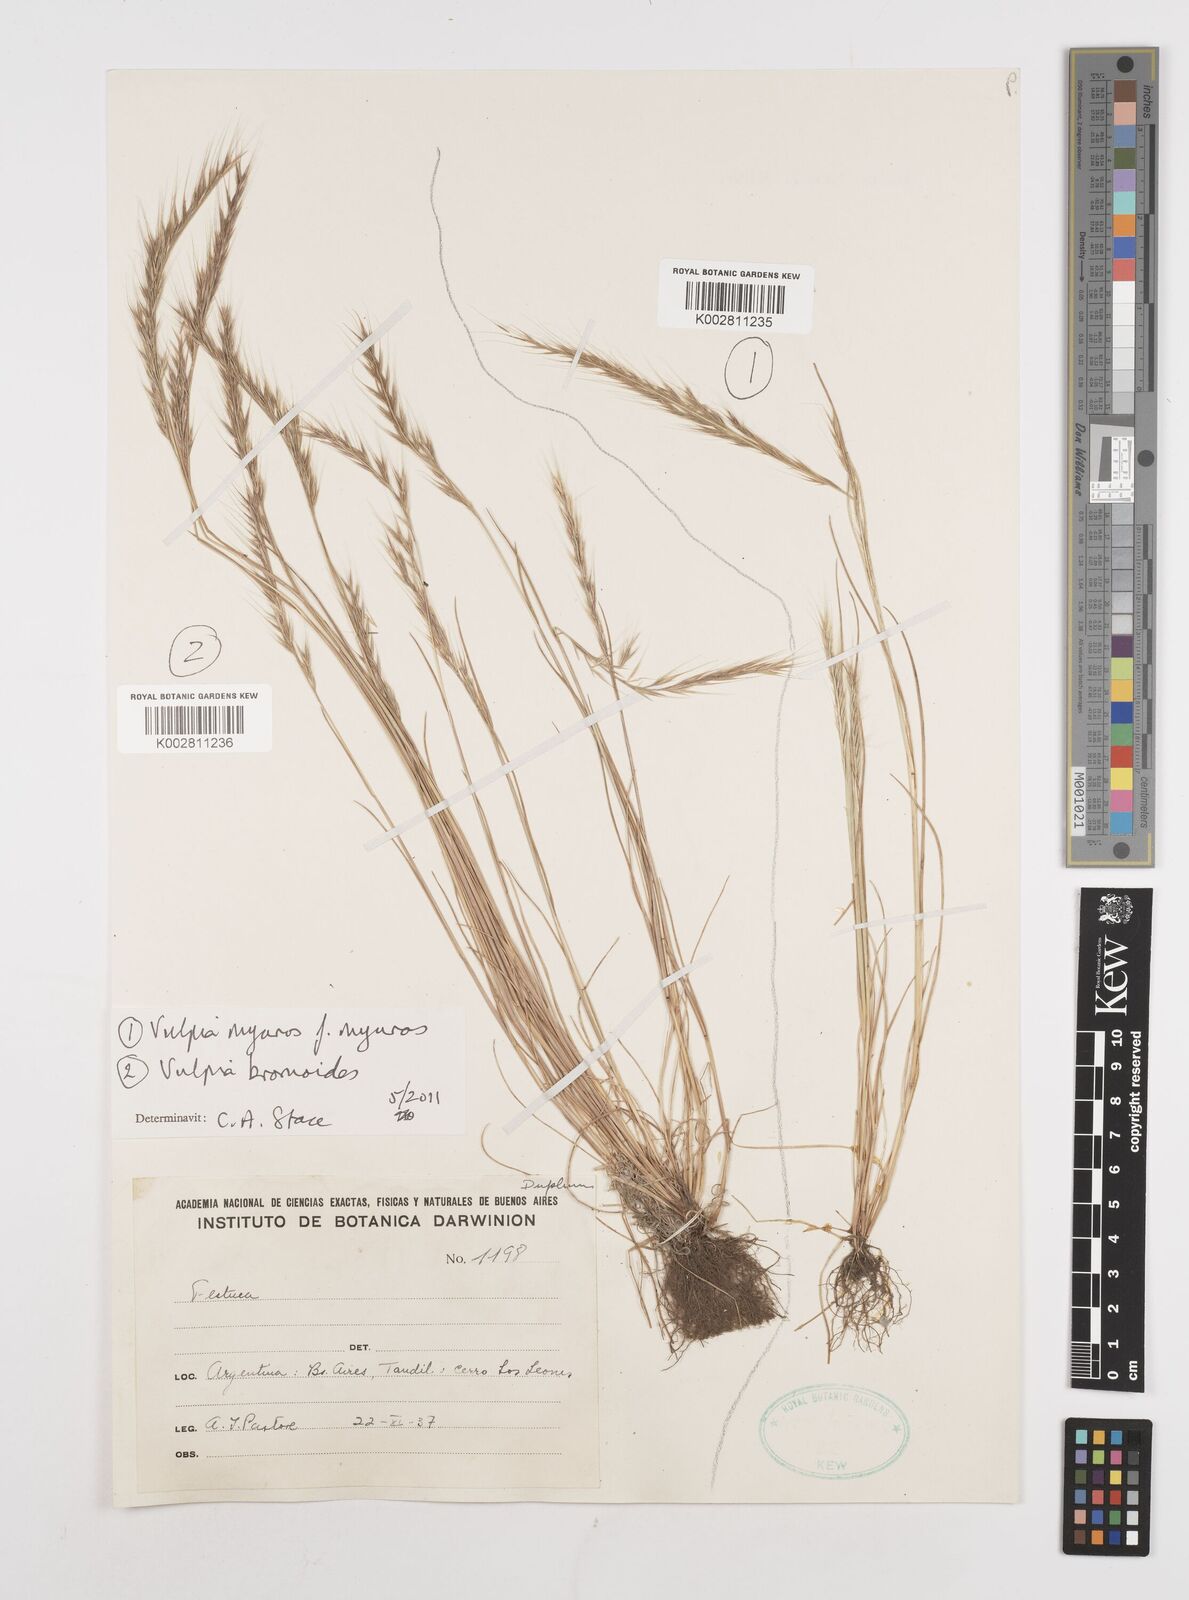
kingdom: Plantae
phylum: Tracheophyta
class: Liliopsida
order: Poales
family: Poaceae
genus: Festuca
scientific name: Festuca
